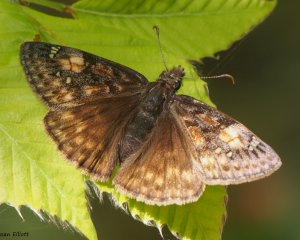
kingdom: Animalia
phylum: Arthropoda
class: Insecta
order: Lepidoptera
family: Hesperiidae
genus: Gesta
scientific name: Gesta
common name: Juvenal's Duskywing
